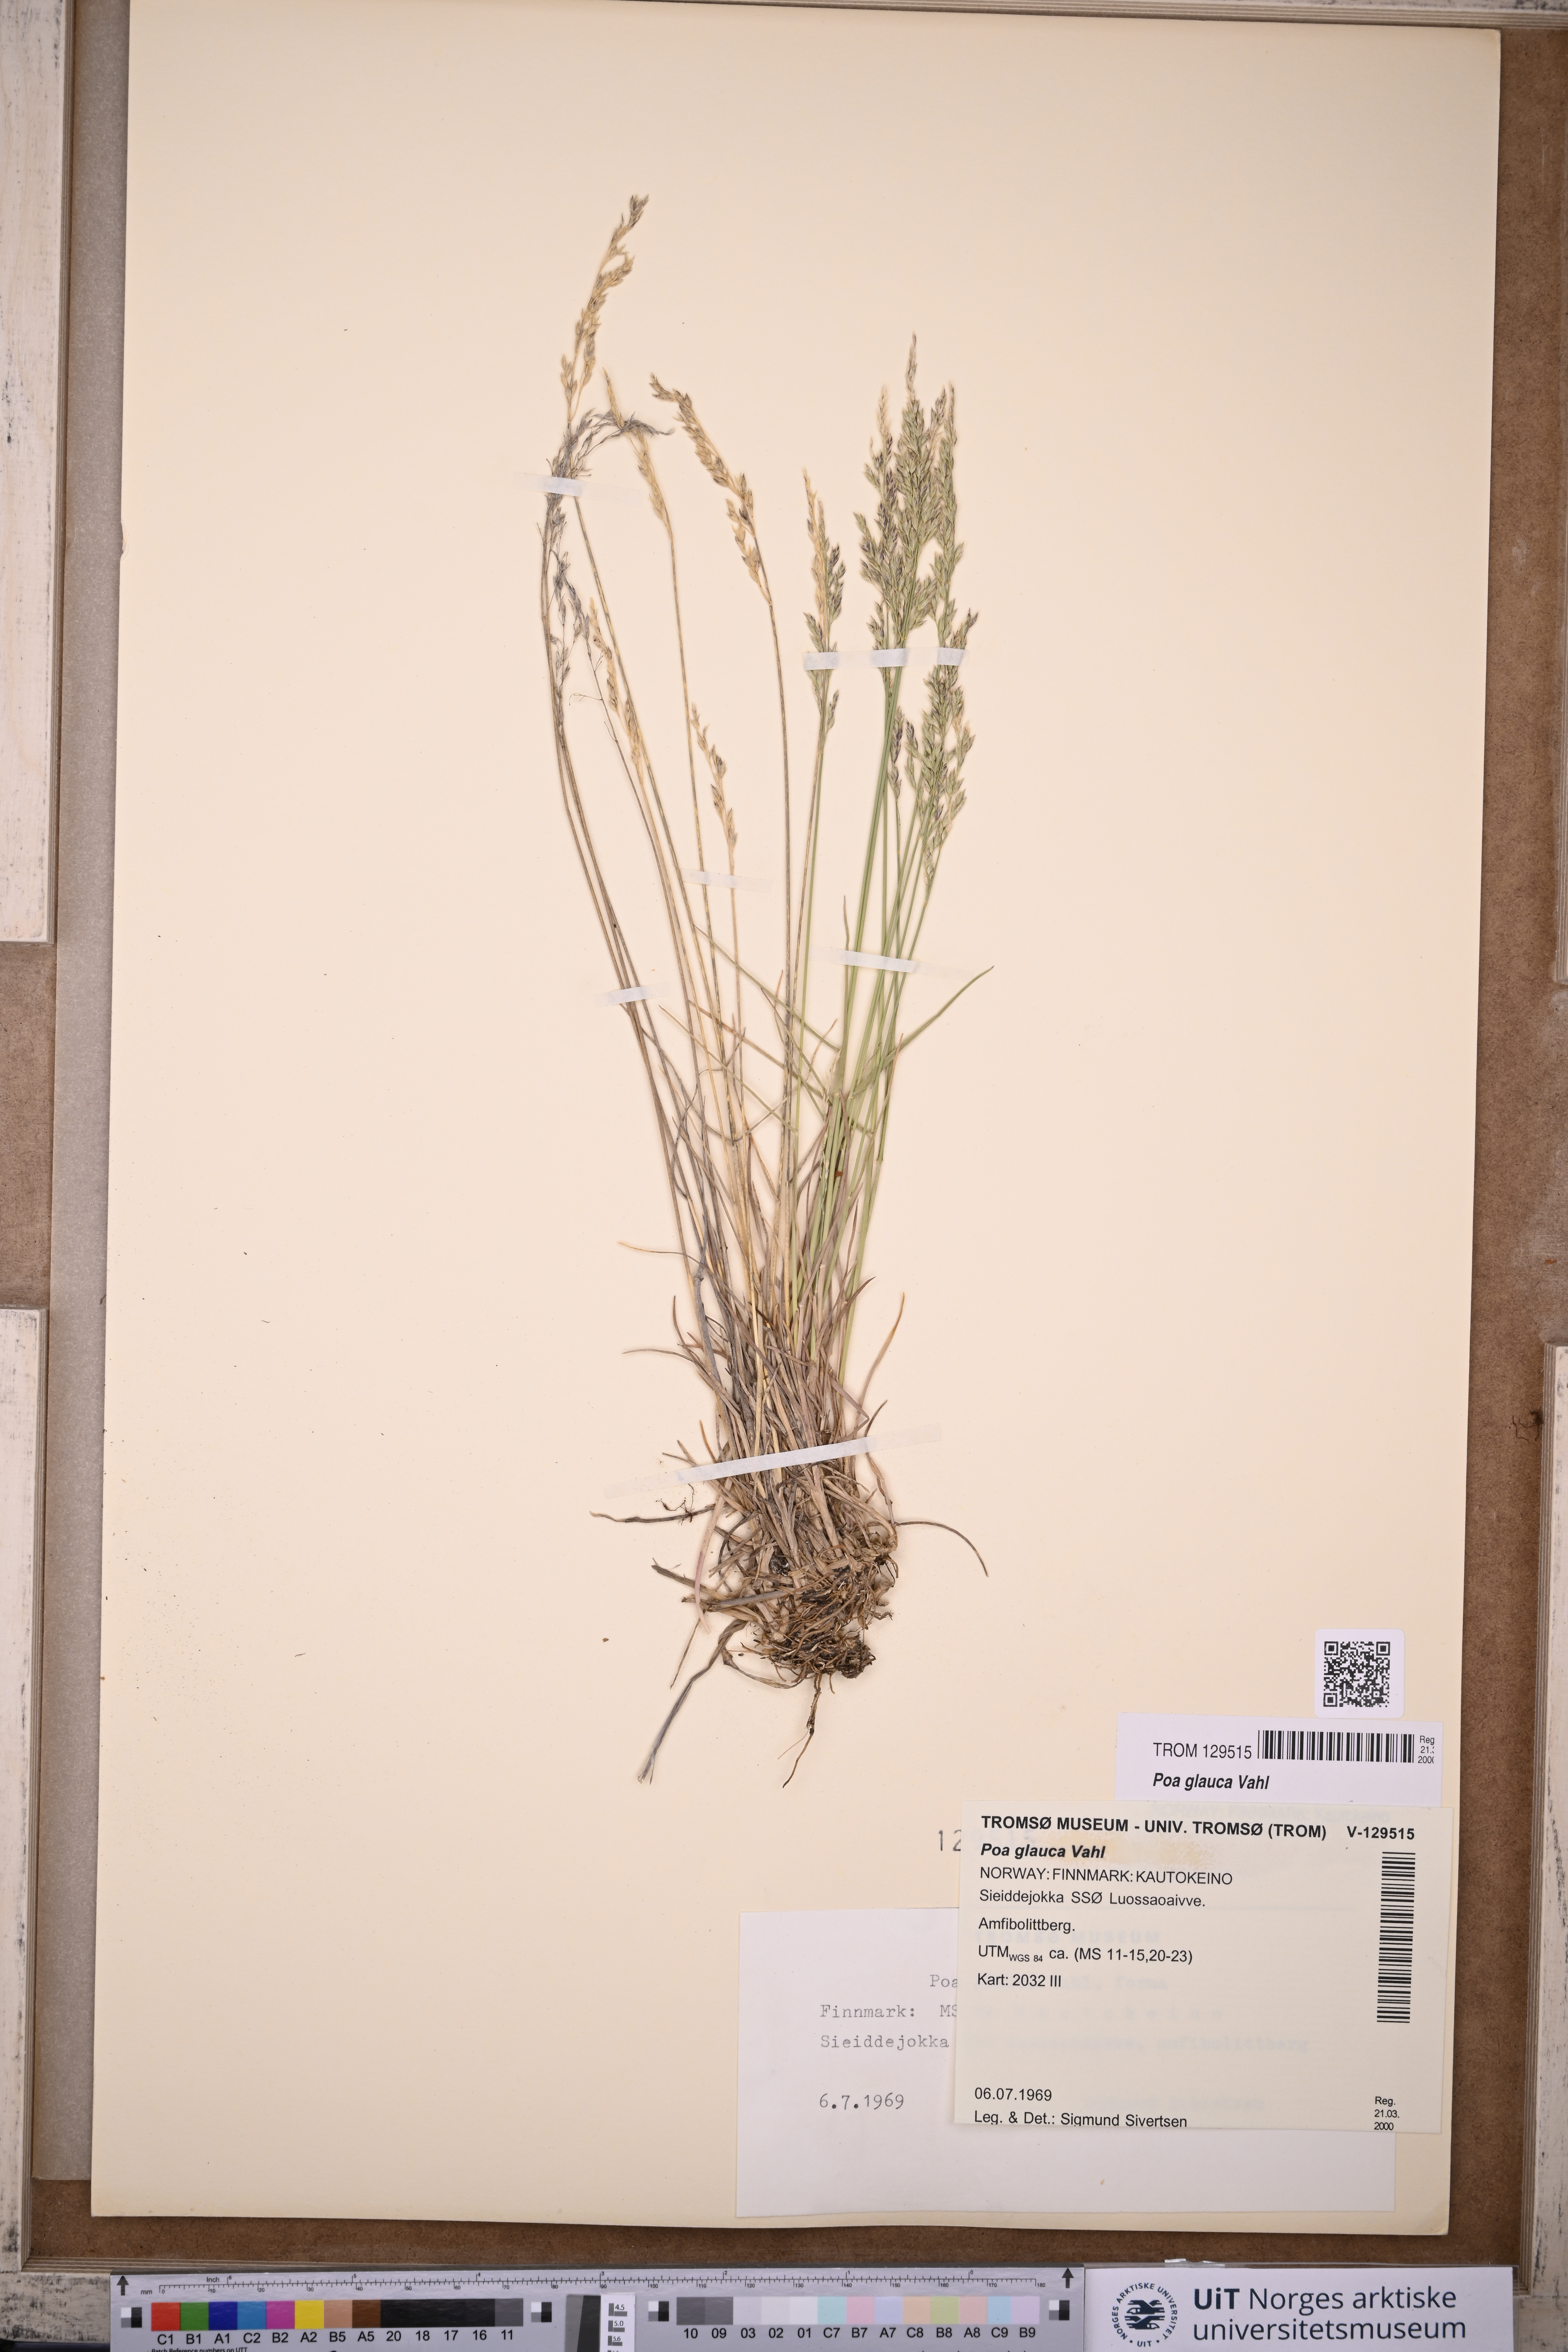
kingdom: Plantae
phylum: Tracheophyta
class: Liliopsida
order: Poales
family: Poaceae
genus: Poa
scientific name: Poa glauca
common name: Glaucous bluegrass
